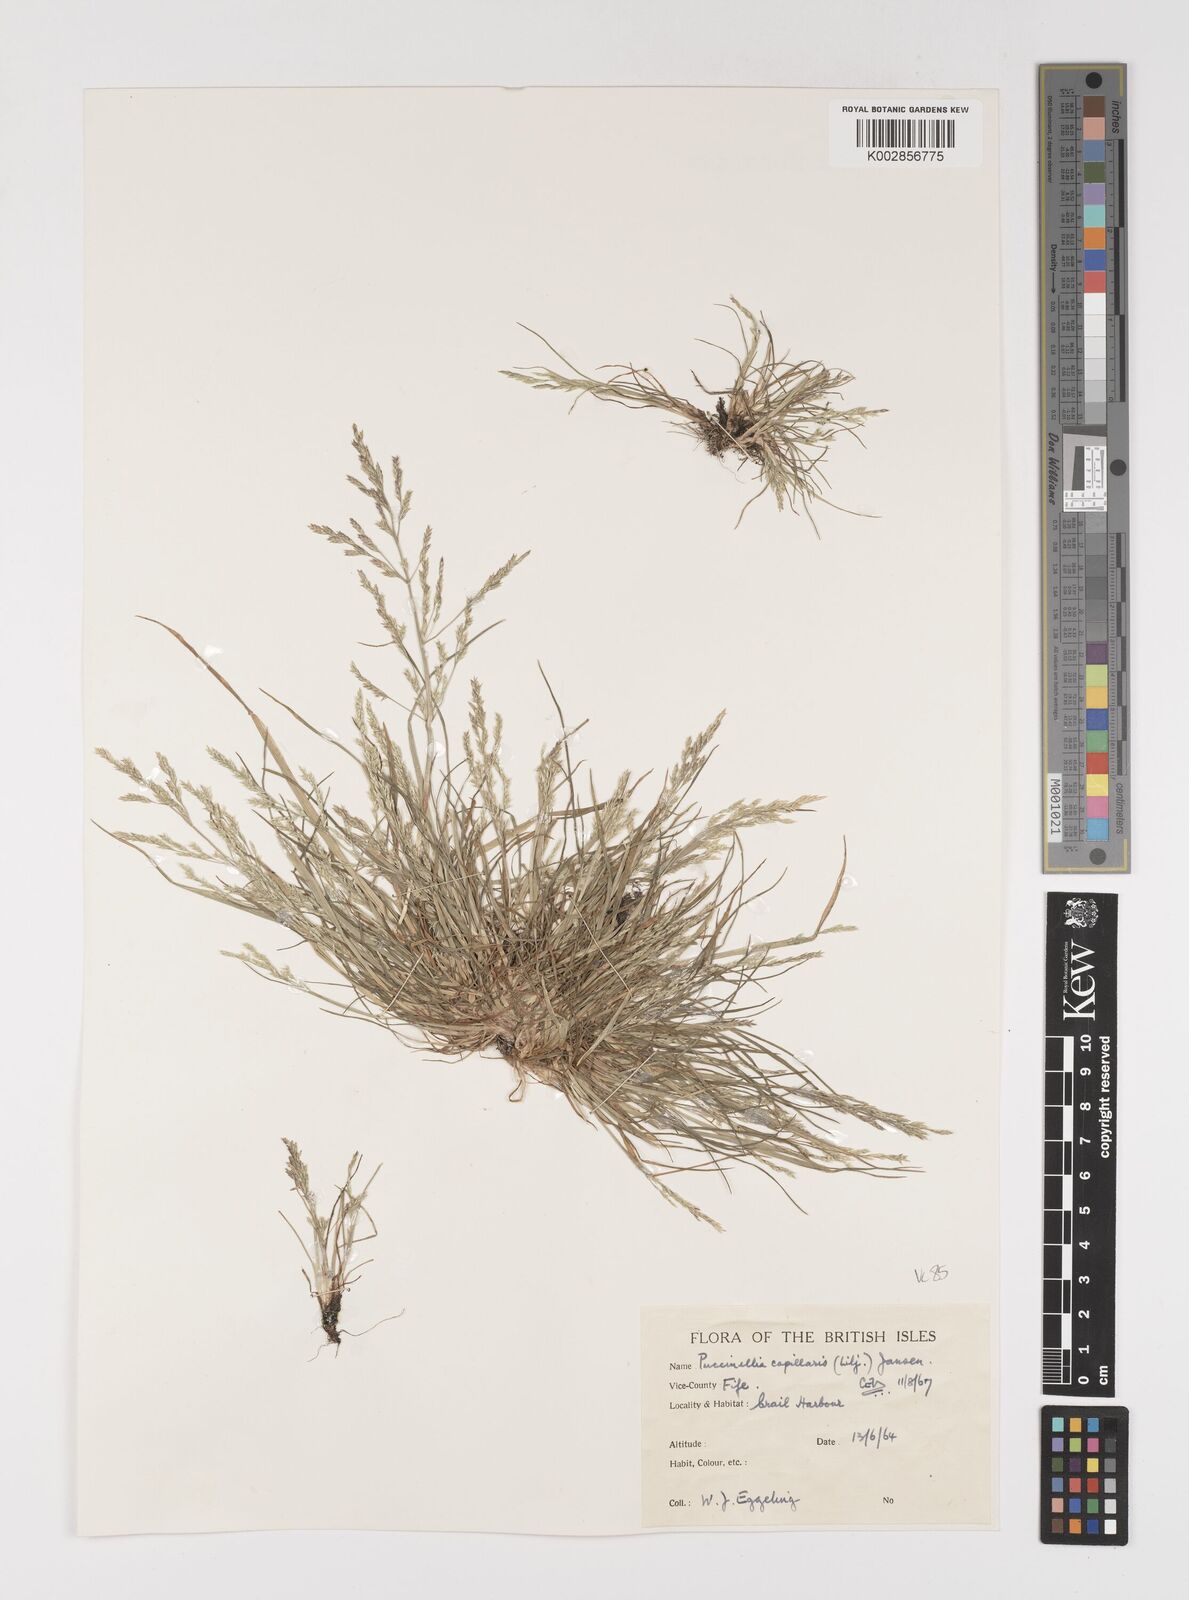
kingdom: Plantae
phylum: Tracheophyta
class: Liliopsida
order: Poales
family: Poaceae
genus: Puccinellia
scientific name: Puccinellia distans
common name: Weeping alkaligrass
